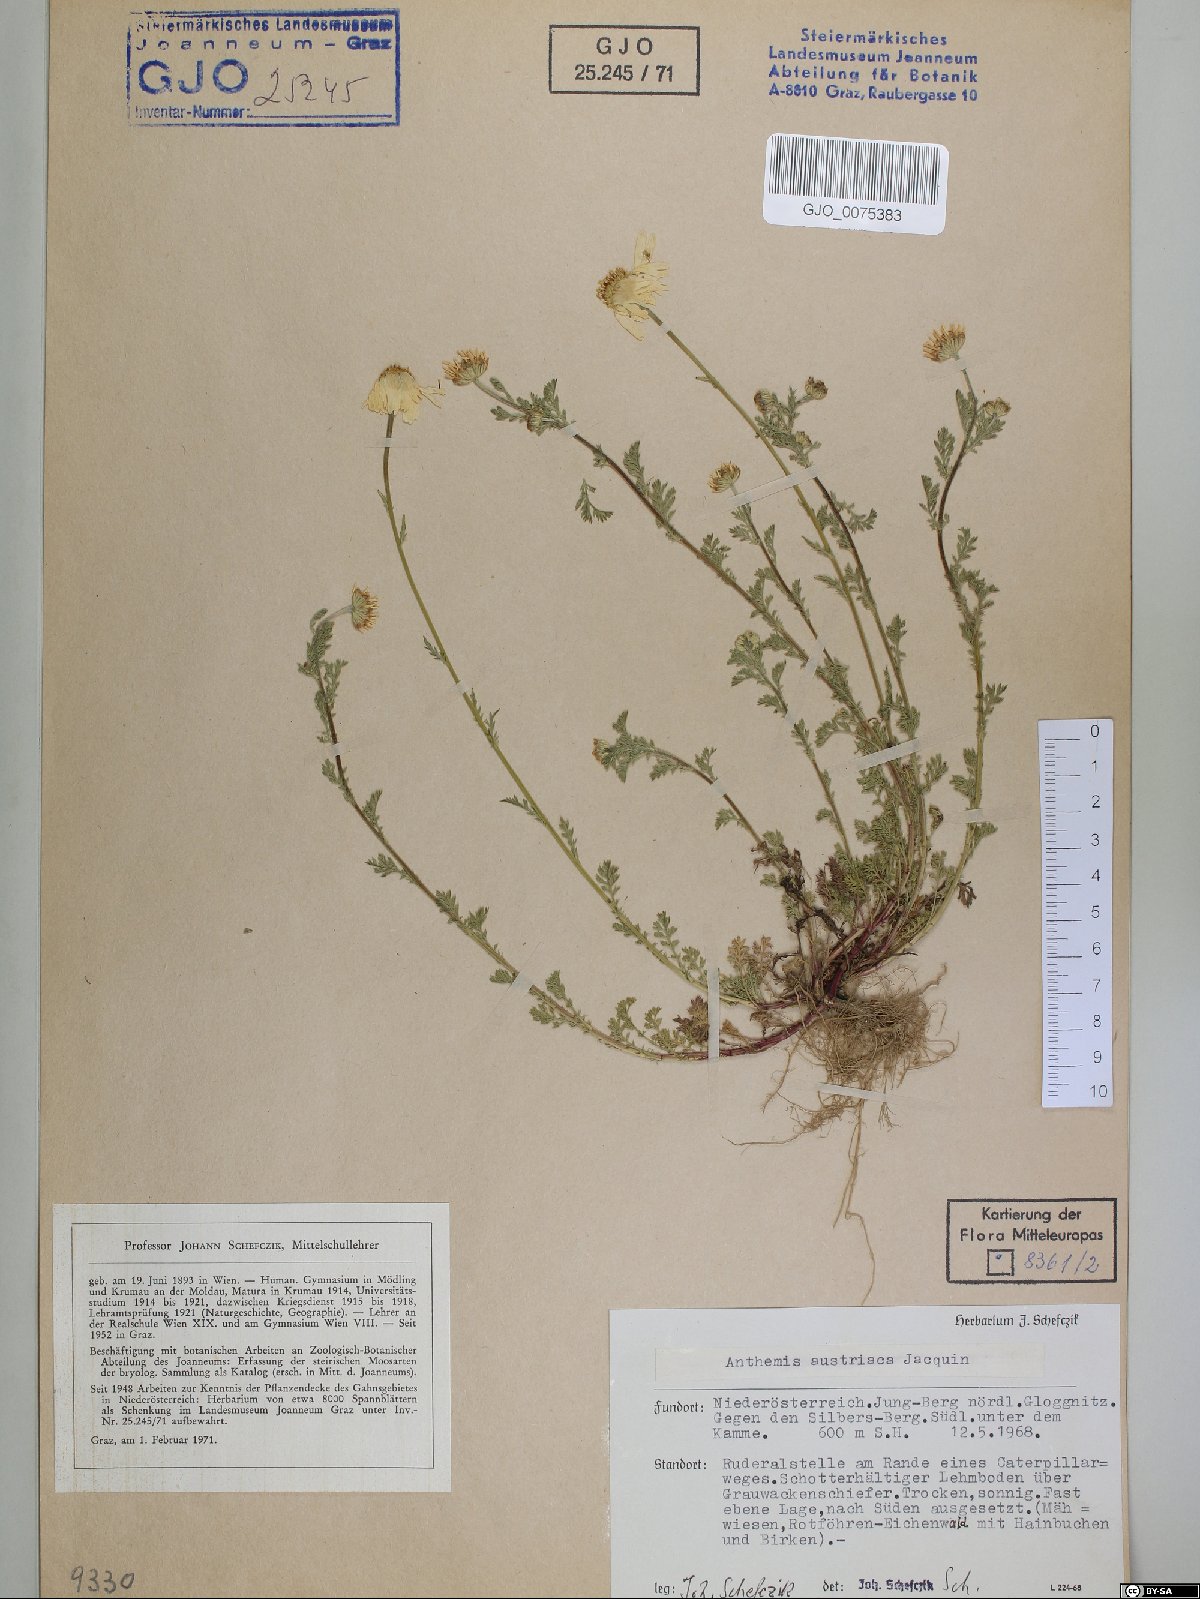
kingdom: Plantae
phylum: Tracheophyta
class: Magnoliopsida
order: Asterales
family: Asteraceae
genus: Cota
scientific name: Cota austriaca
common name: Austrian chamomile
